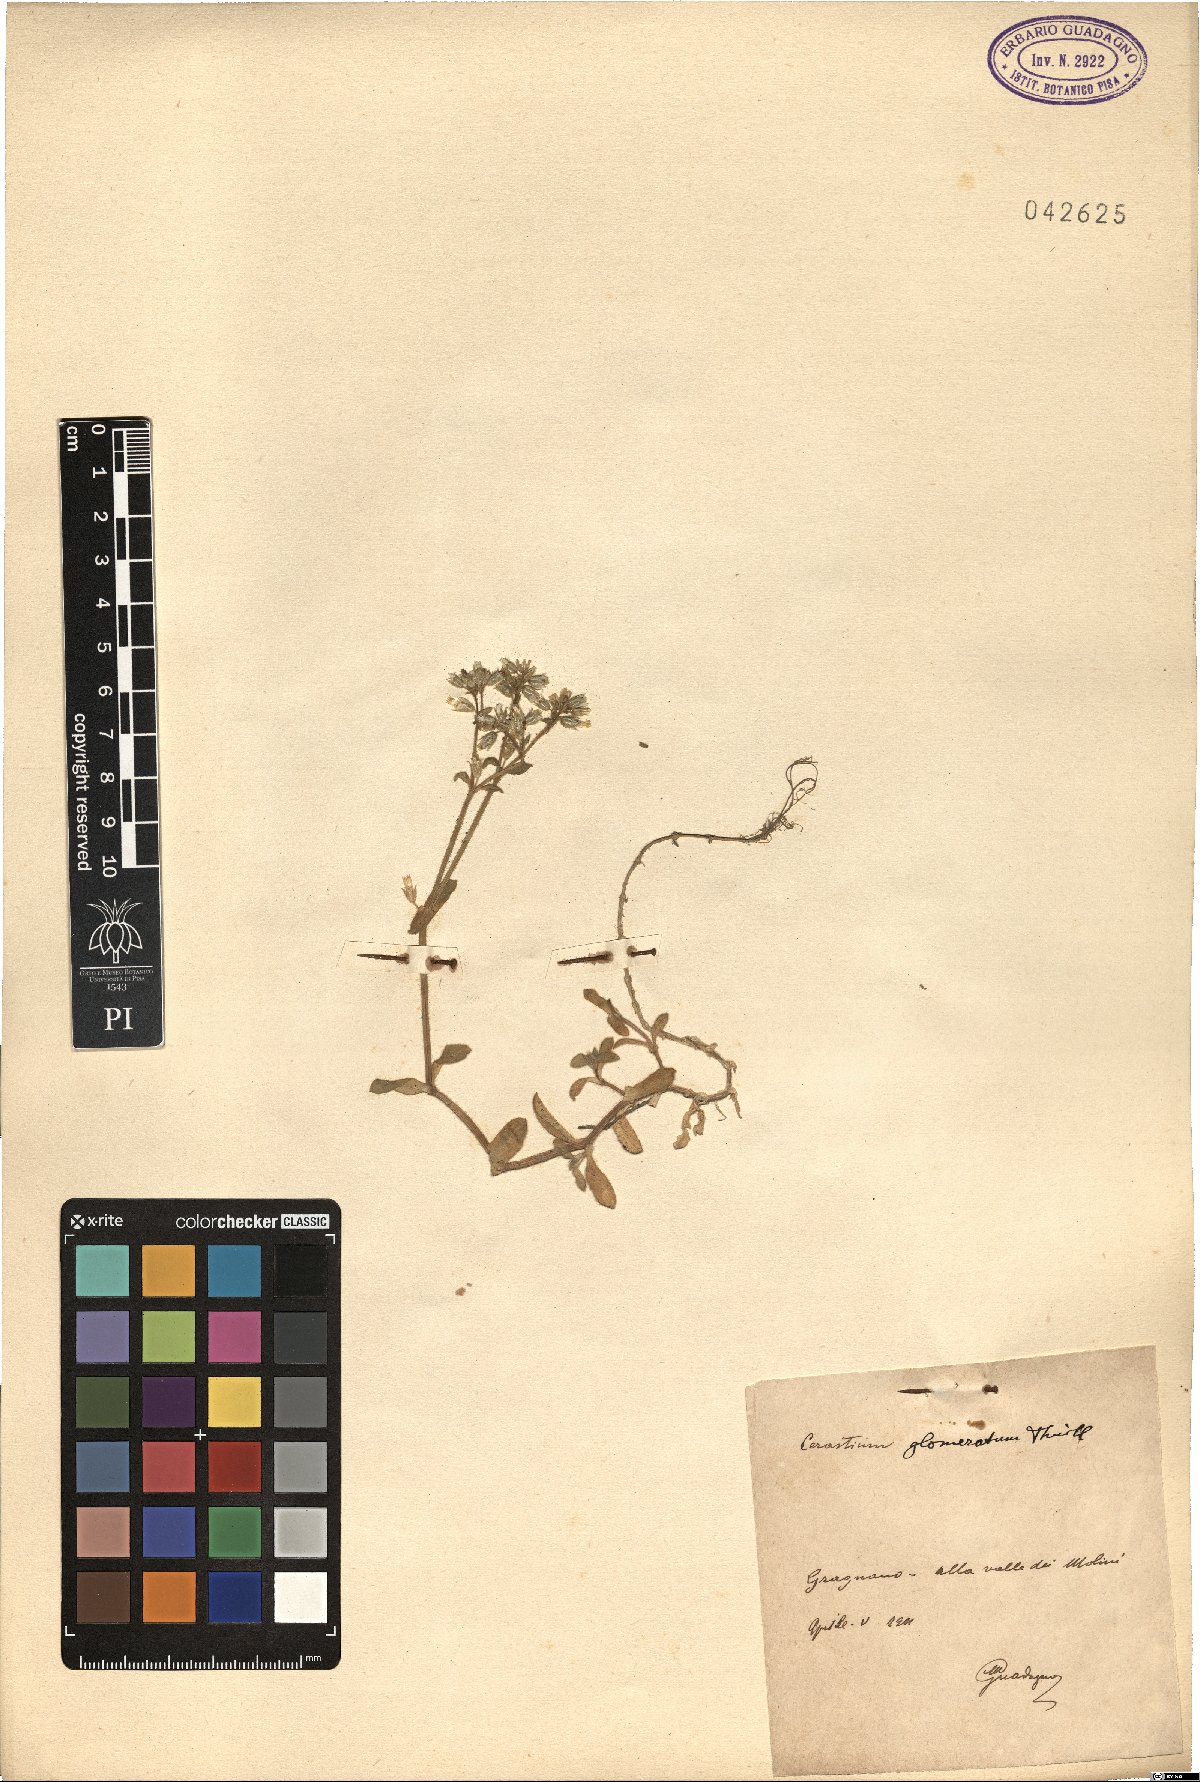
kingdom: Plantae
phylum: Tracheophyta
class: Magnoliopsida
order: Caryophyllales
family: Caryophyllaceae
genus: Cerastium
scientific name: Cerastium glomeratum
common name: Sticky chickweed
